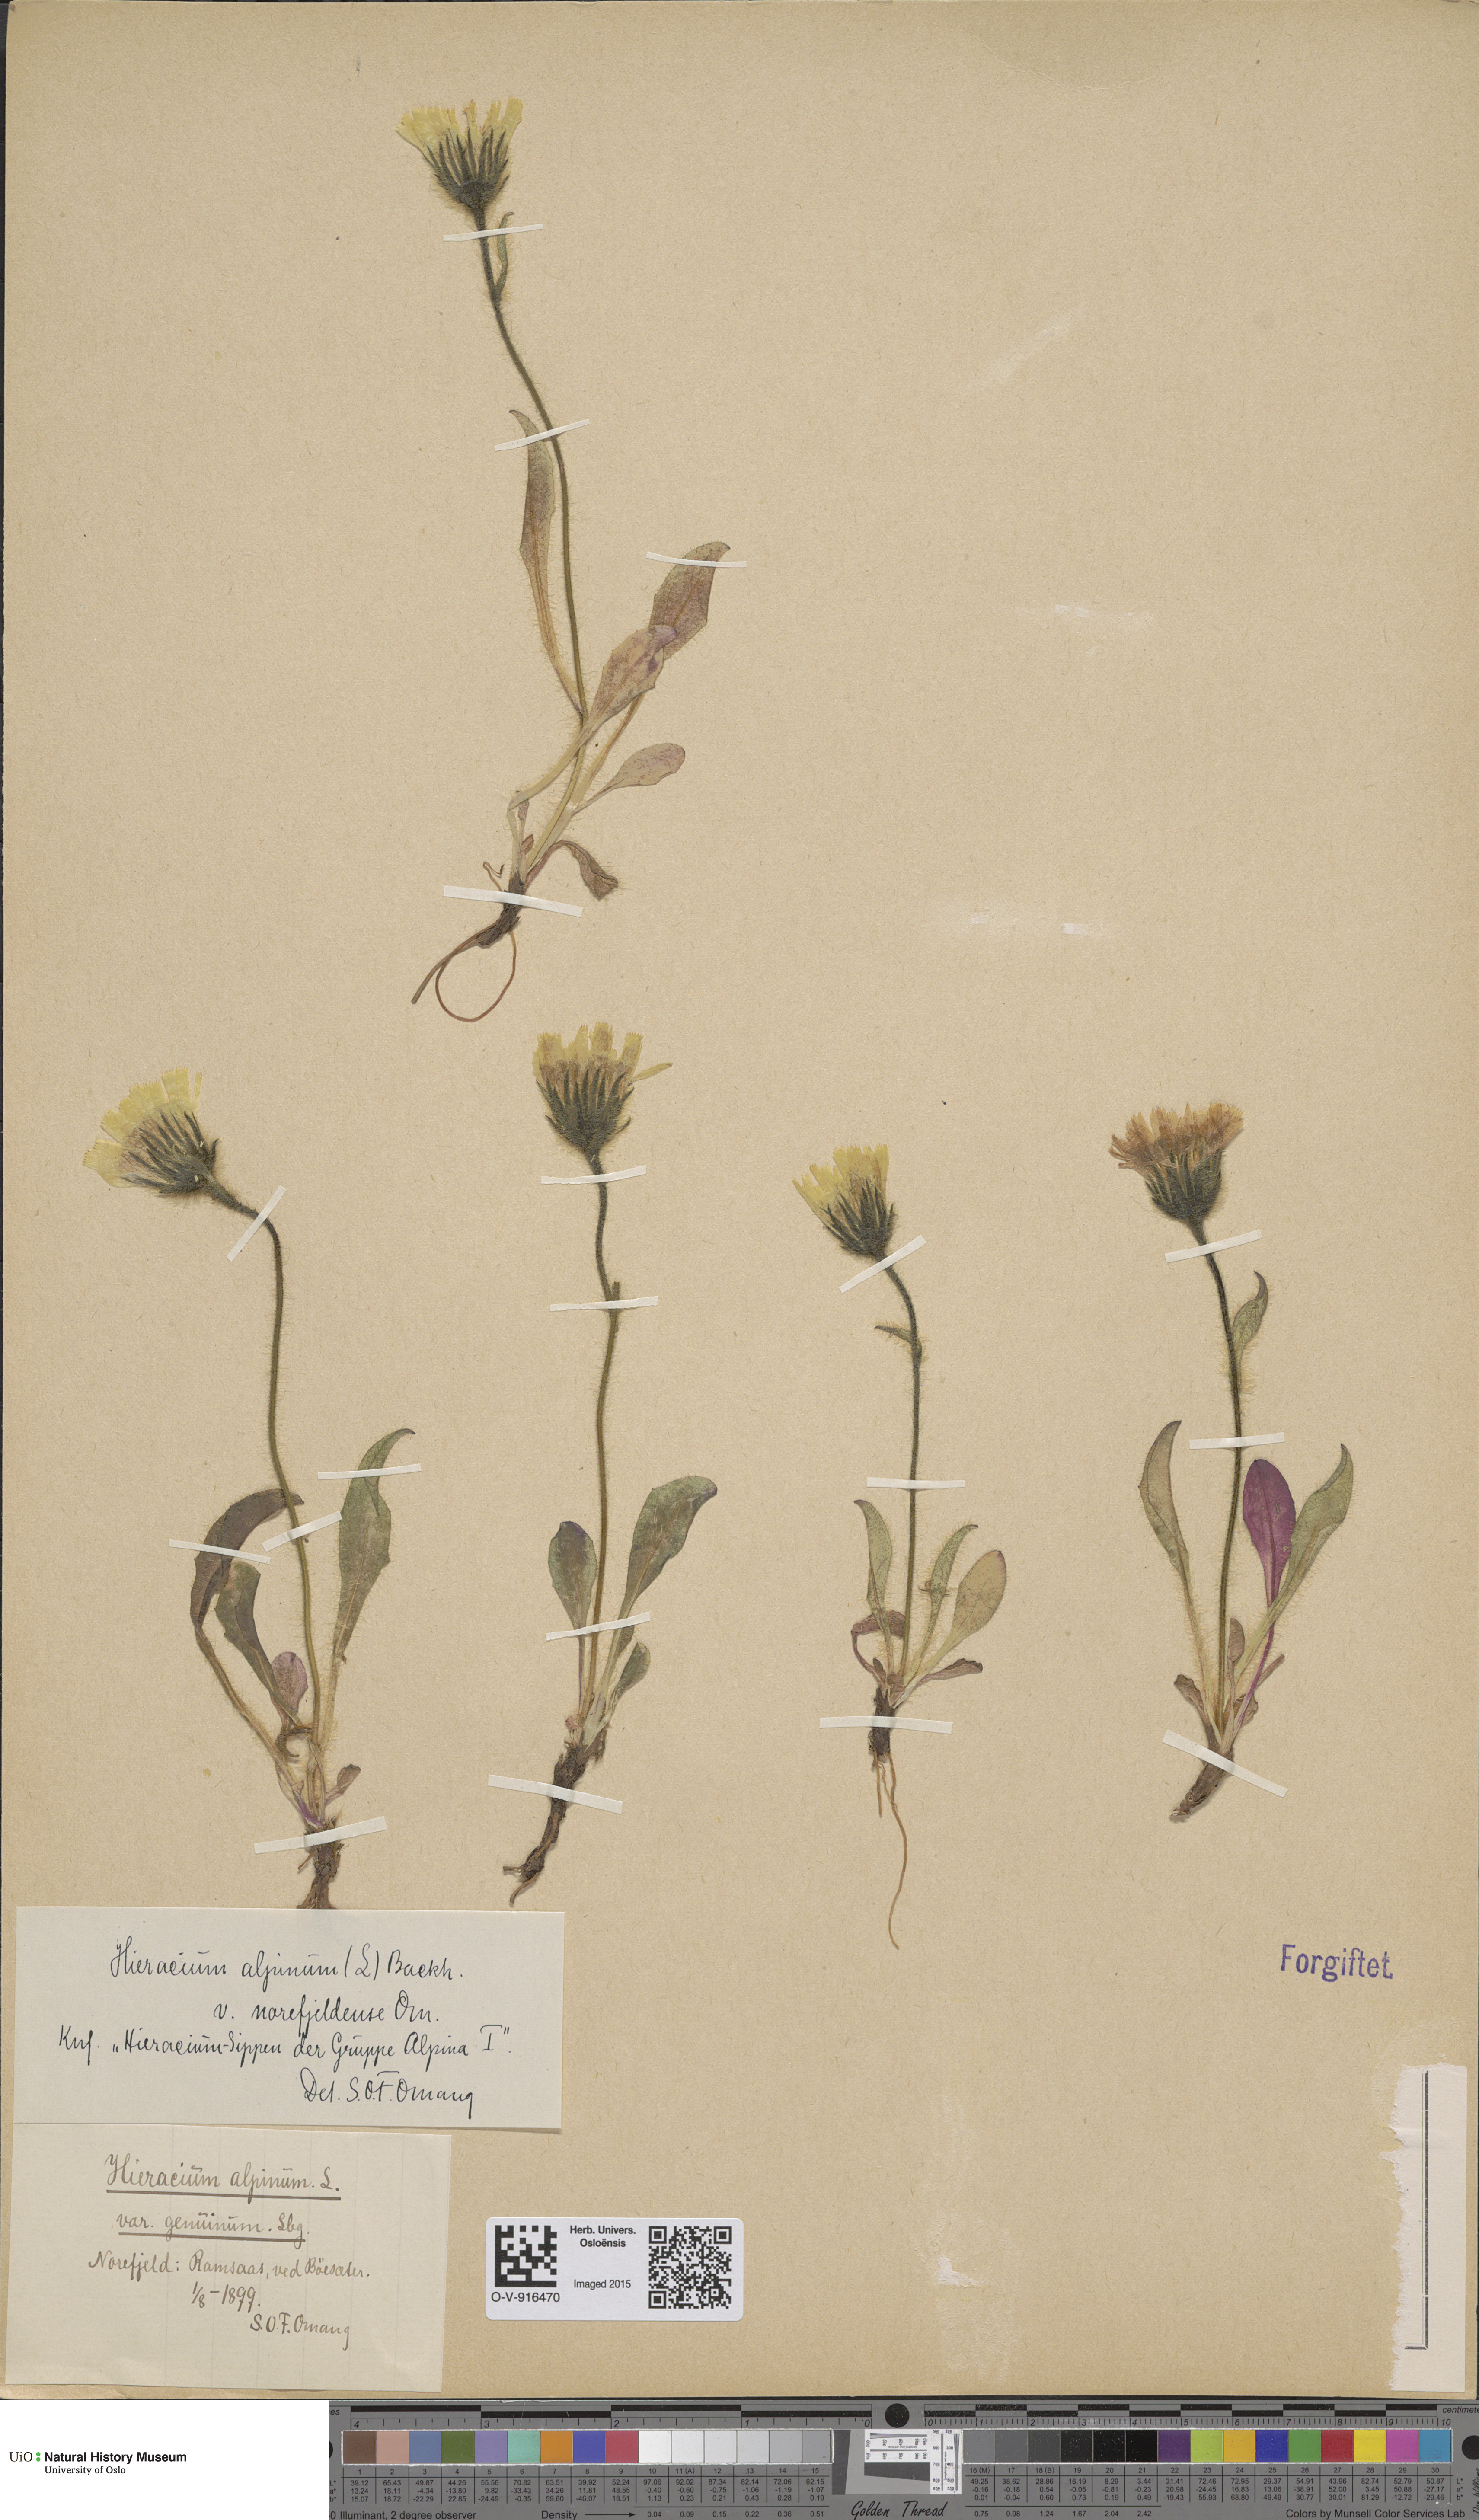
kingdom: Plantae
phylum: Tracheophyta
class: Magnoliopsida
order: Asterales
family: Asteraceae
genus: Hieracium
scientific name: Hieracium alpinum
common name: Alpine hawkweed
